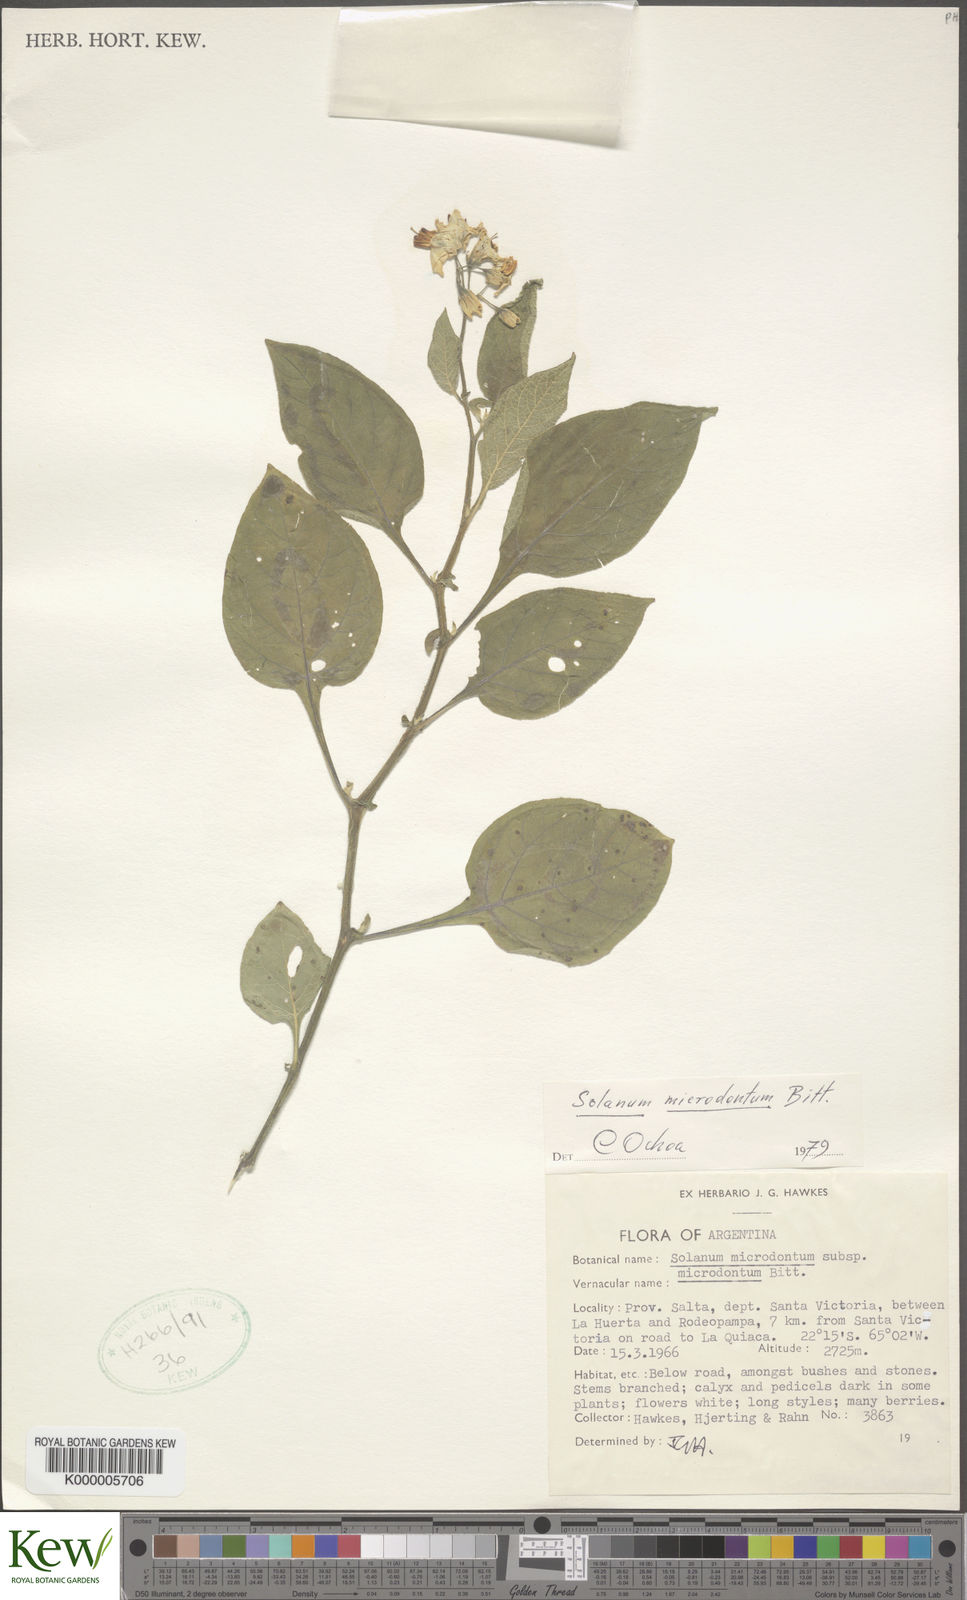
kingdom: Plantae
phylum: Tracheophyta
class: Magnoliopsida
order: Solanales
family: Solanaceae
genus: Solanum
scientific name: Solanum microdontum
